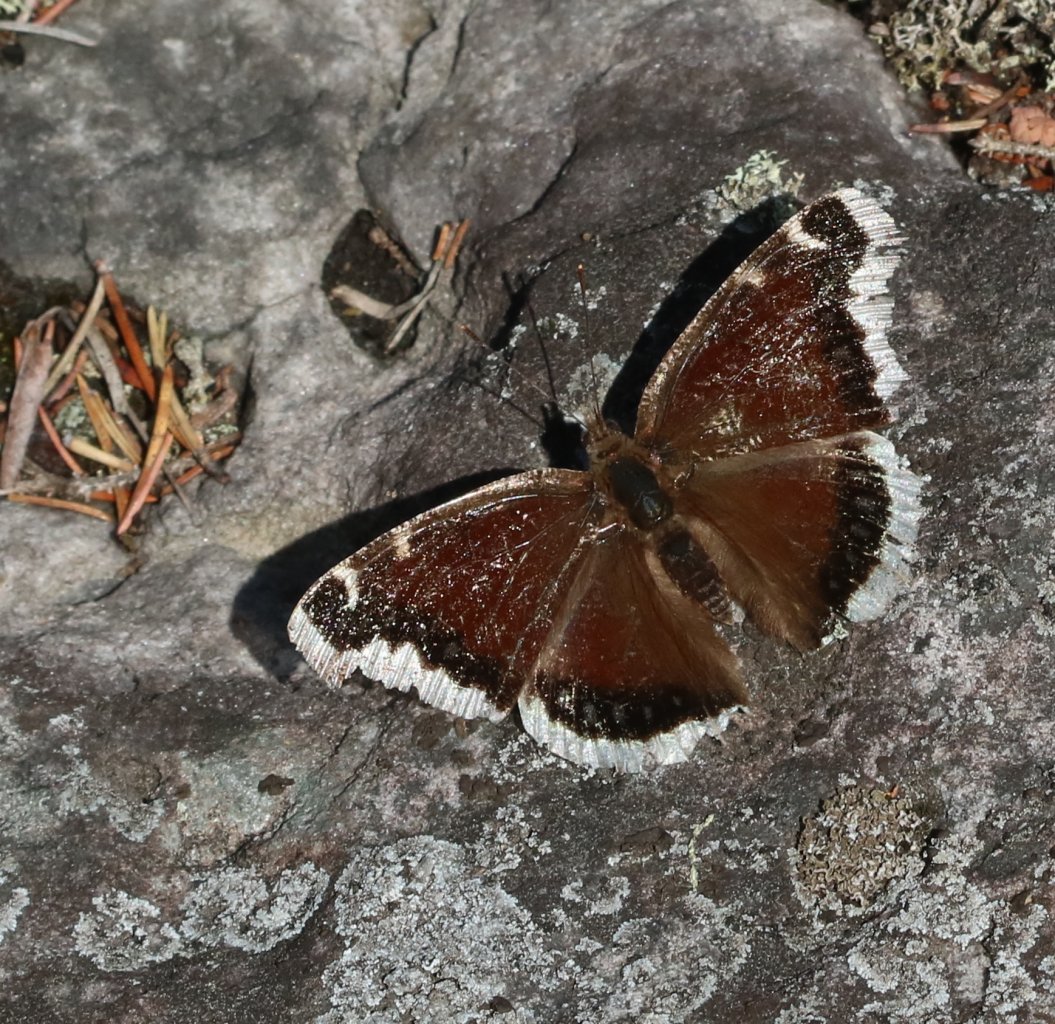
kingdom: Animalia
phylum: Arthropoda
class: Insecta
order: Lepidoptera
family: Nymphalidae
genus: Nymphalis
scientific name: Nymphalis antiopa
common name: Mourning Cloak
